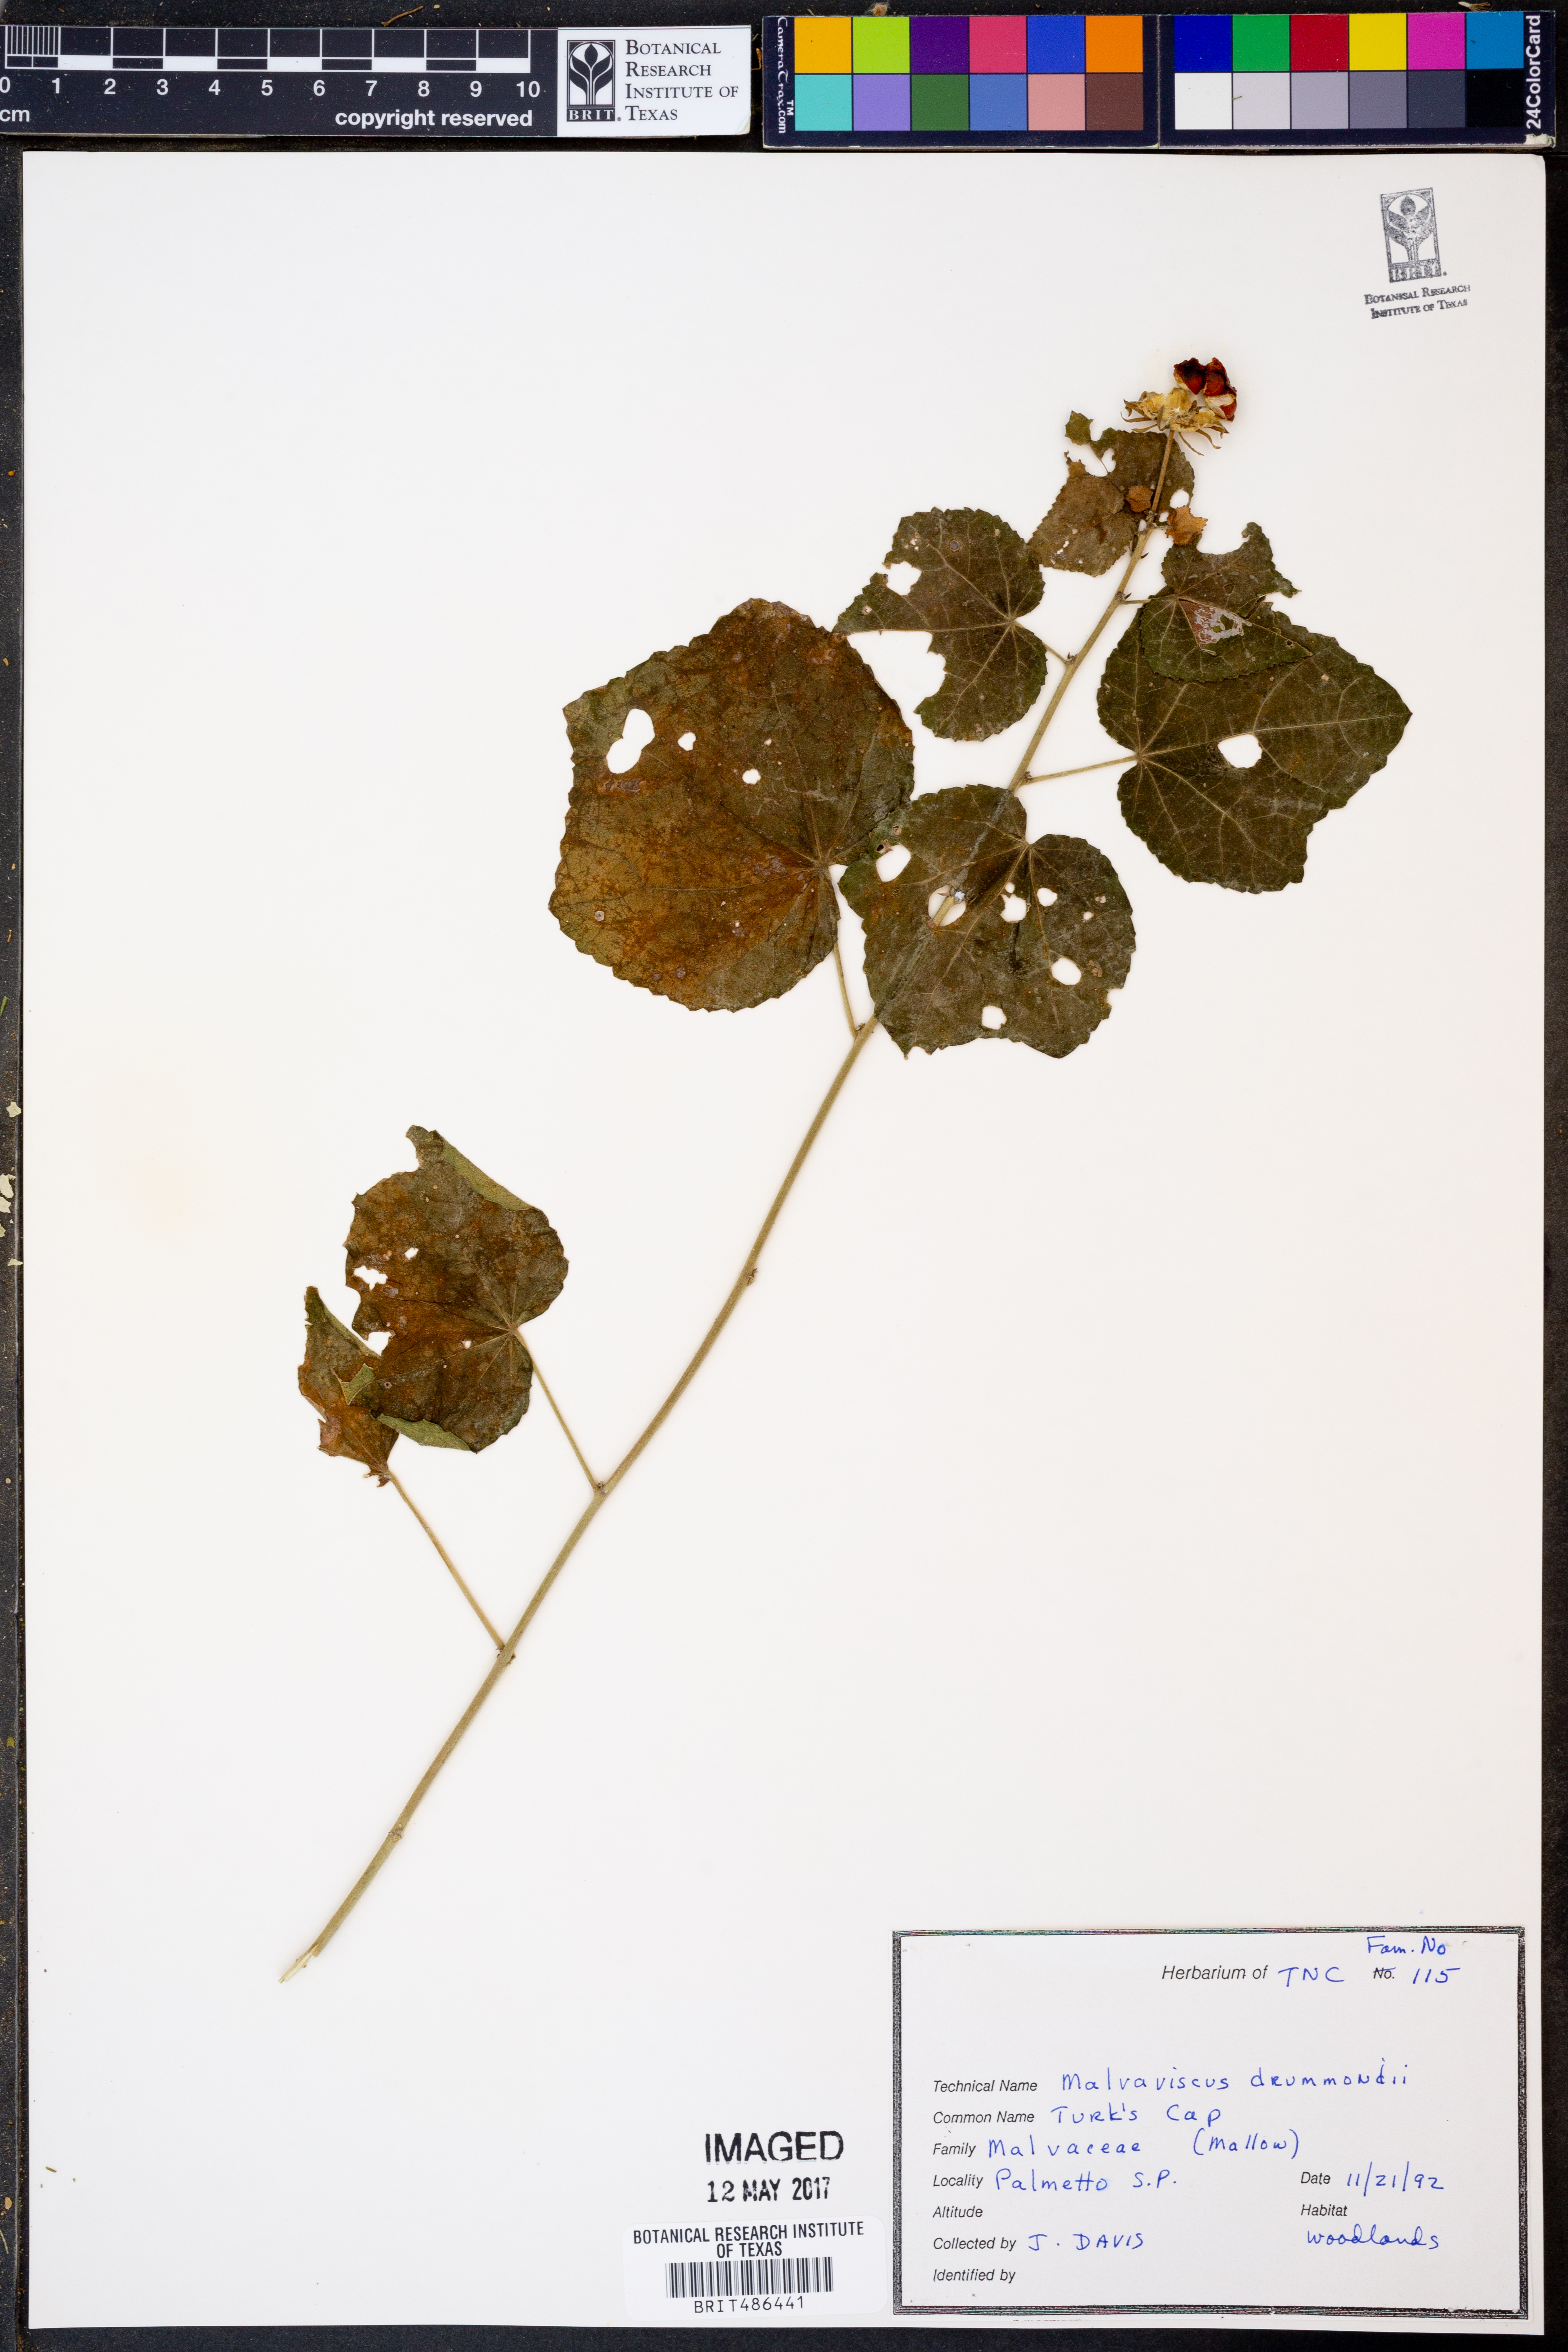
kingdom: Plantae
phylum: Tracheophyta
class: Magnoliopsida
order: Malvales
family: Malvaceae
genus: Malvaviscus
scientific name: Malvaviscus arboreus
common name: Wax mallow
